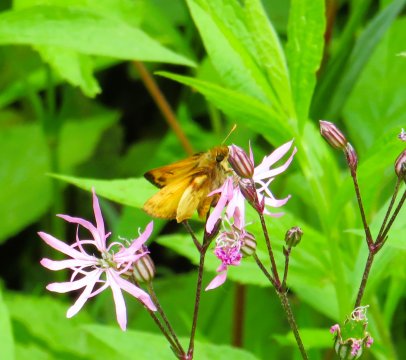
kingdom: Animalia
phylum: Arthropoda
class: Insecta
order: Lepidoptera
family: Hesperiidae
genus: Lon
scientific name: Lon zabulon
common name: Zabulon Skipper
